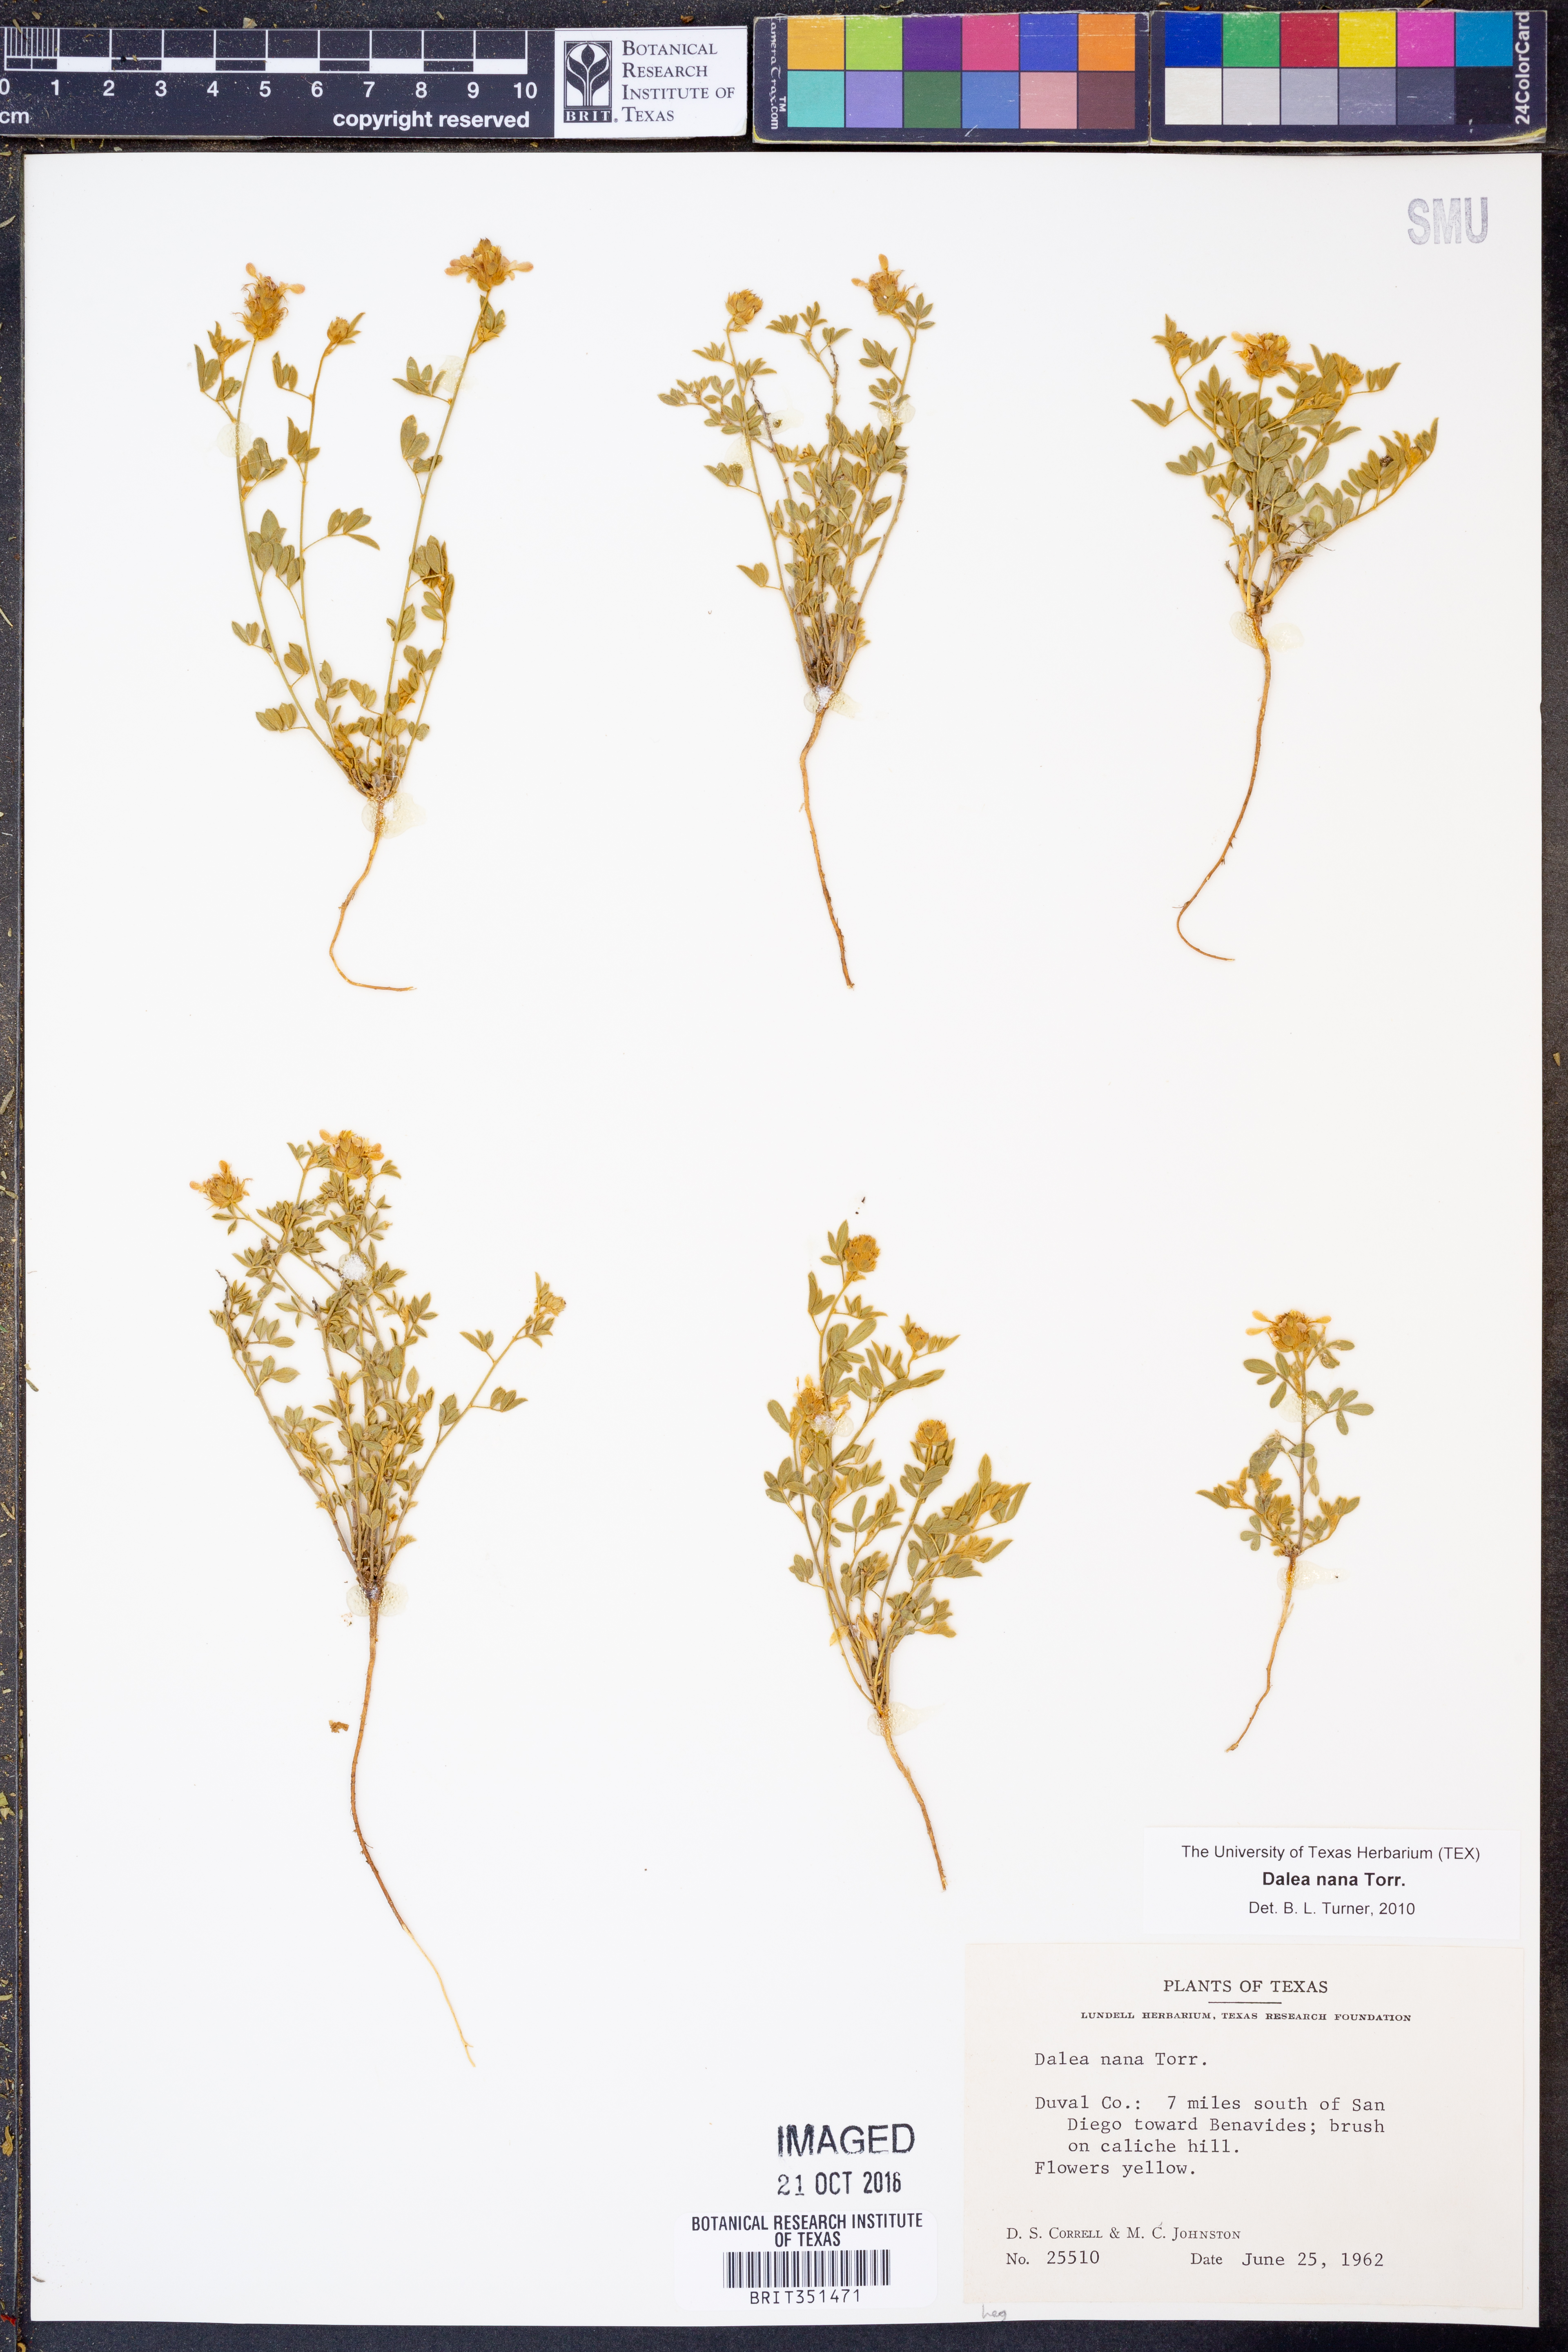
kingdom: Plantae
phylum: Tracheophyta
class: Magnoliopsida
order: Fabales
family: Fabaceae
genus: Dalea
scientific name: Dalea nana
